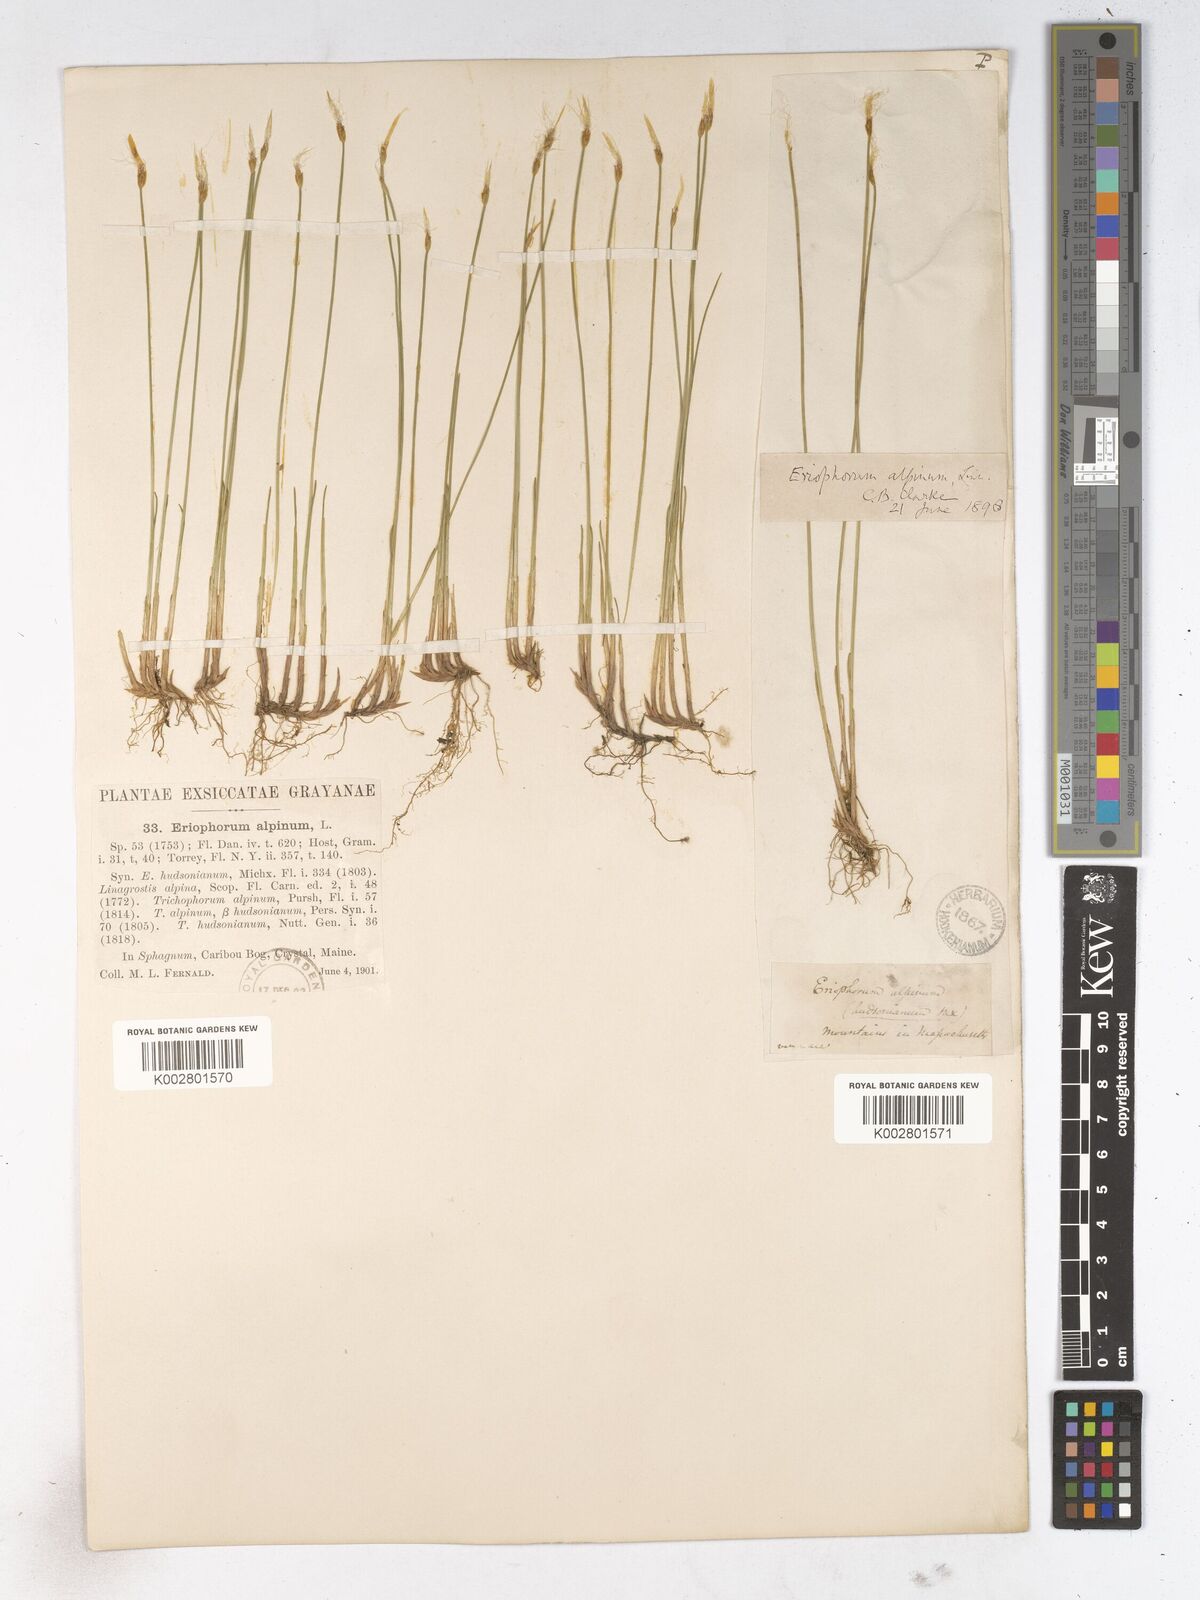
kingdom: Plantae
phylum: Tracheophyta
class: Liliopsida
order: Poales
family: Cyperaceae
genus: Trichophorum
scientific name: Trichophorum alpinum
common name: Alpine bulrush
